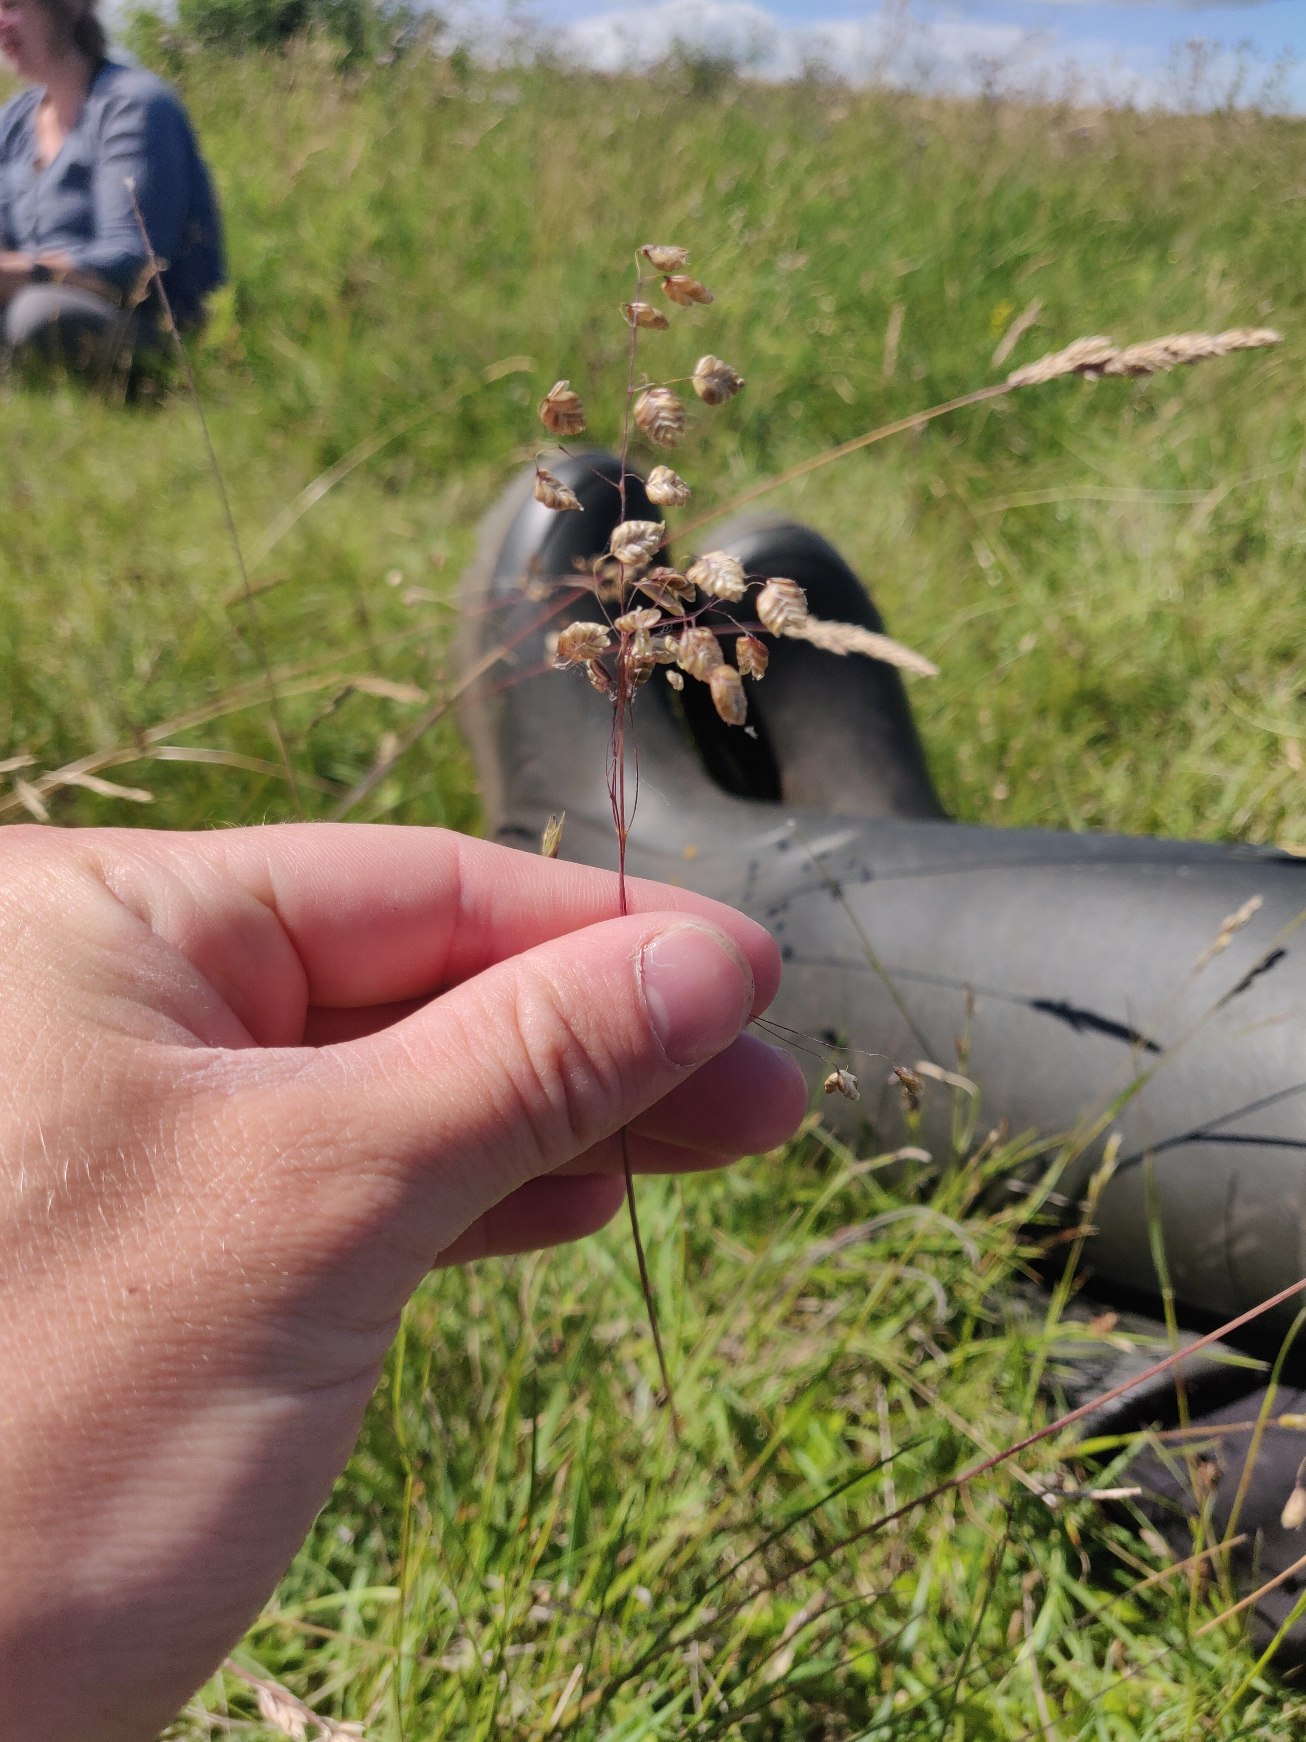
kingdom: Plantae
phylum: Tracheophyta
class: Liliopsida
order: Poales
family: Poaceae
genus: Briza
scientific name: Briza media
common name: Hjertegræs
